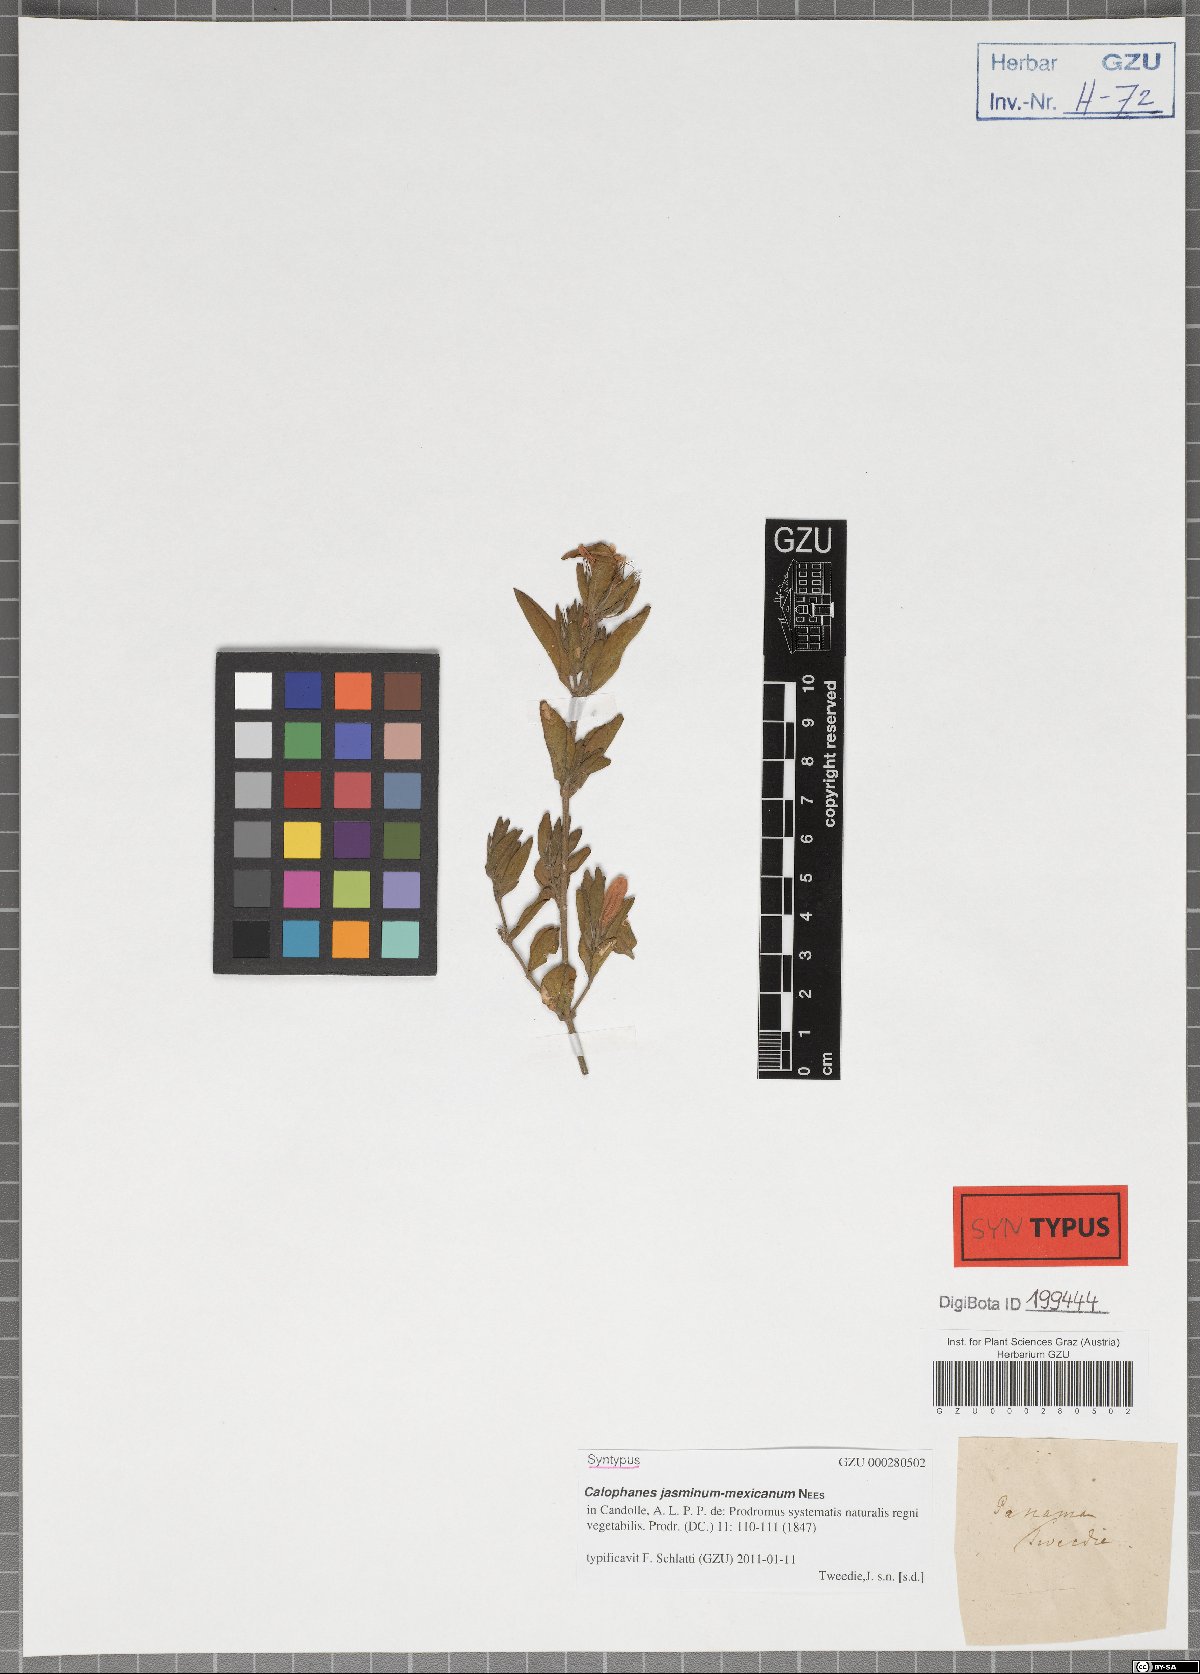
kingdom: Plantae
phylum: Tracheophyta
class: Magnoliopsida
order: Lamiales
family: Acanthaceae
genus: Dyschoriste
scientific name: Dyschoriste microphylla
